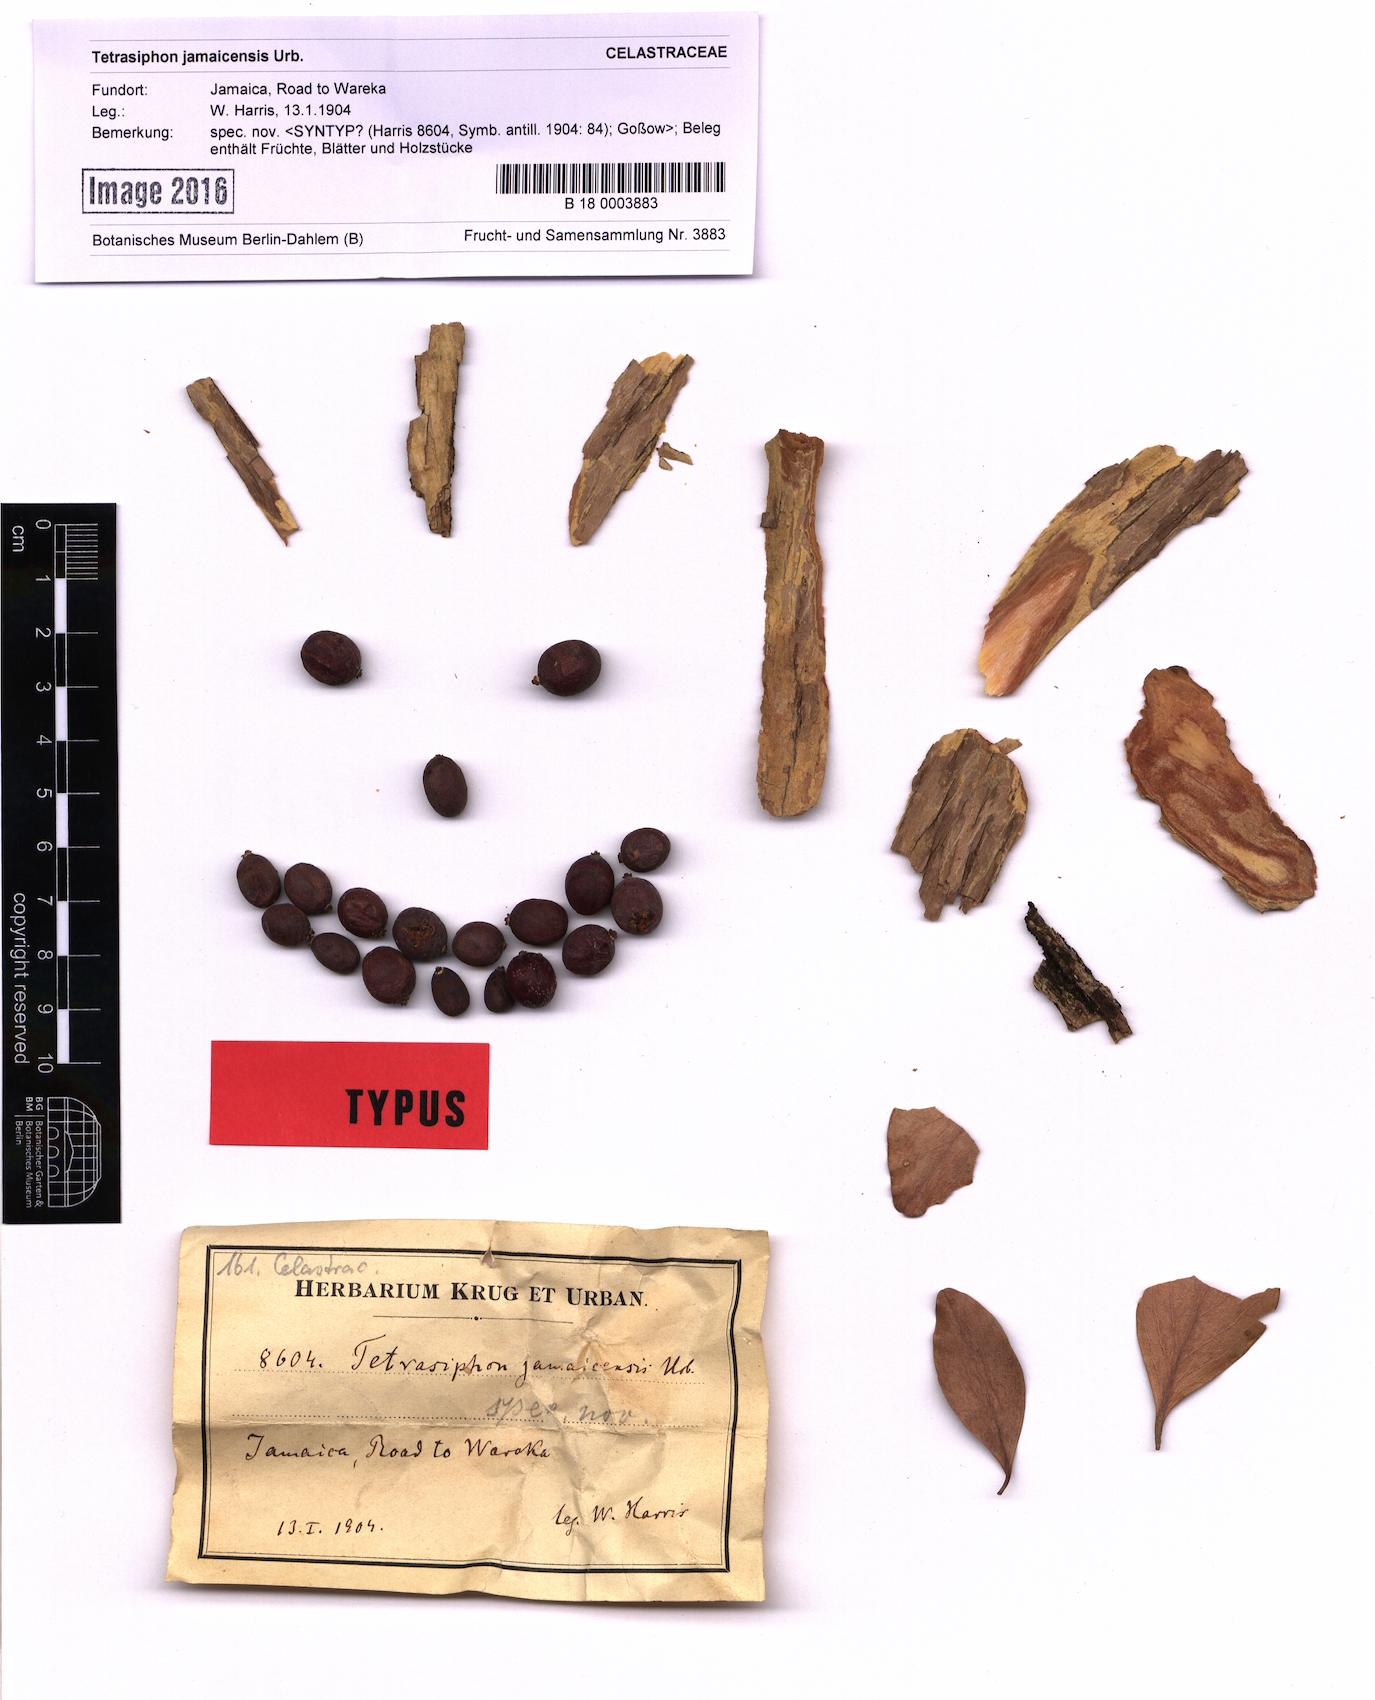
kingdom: Plantae
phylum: Tracheophyta
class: Magnoliopsida
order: Celastrales
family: Celastraceae
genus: Tetrasiphon
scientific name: Tetrasiphon jamaicensis
